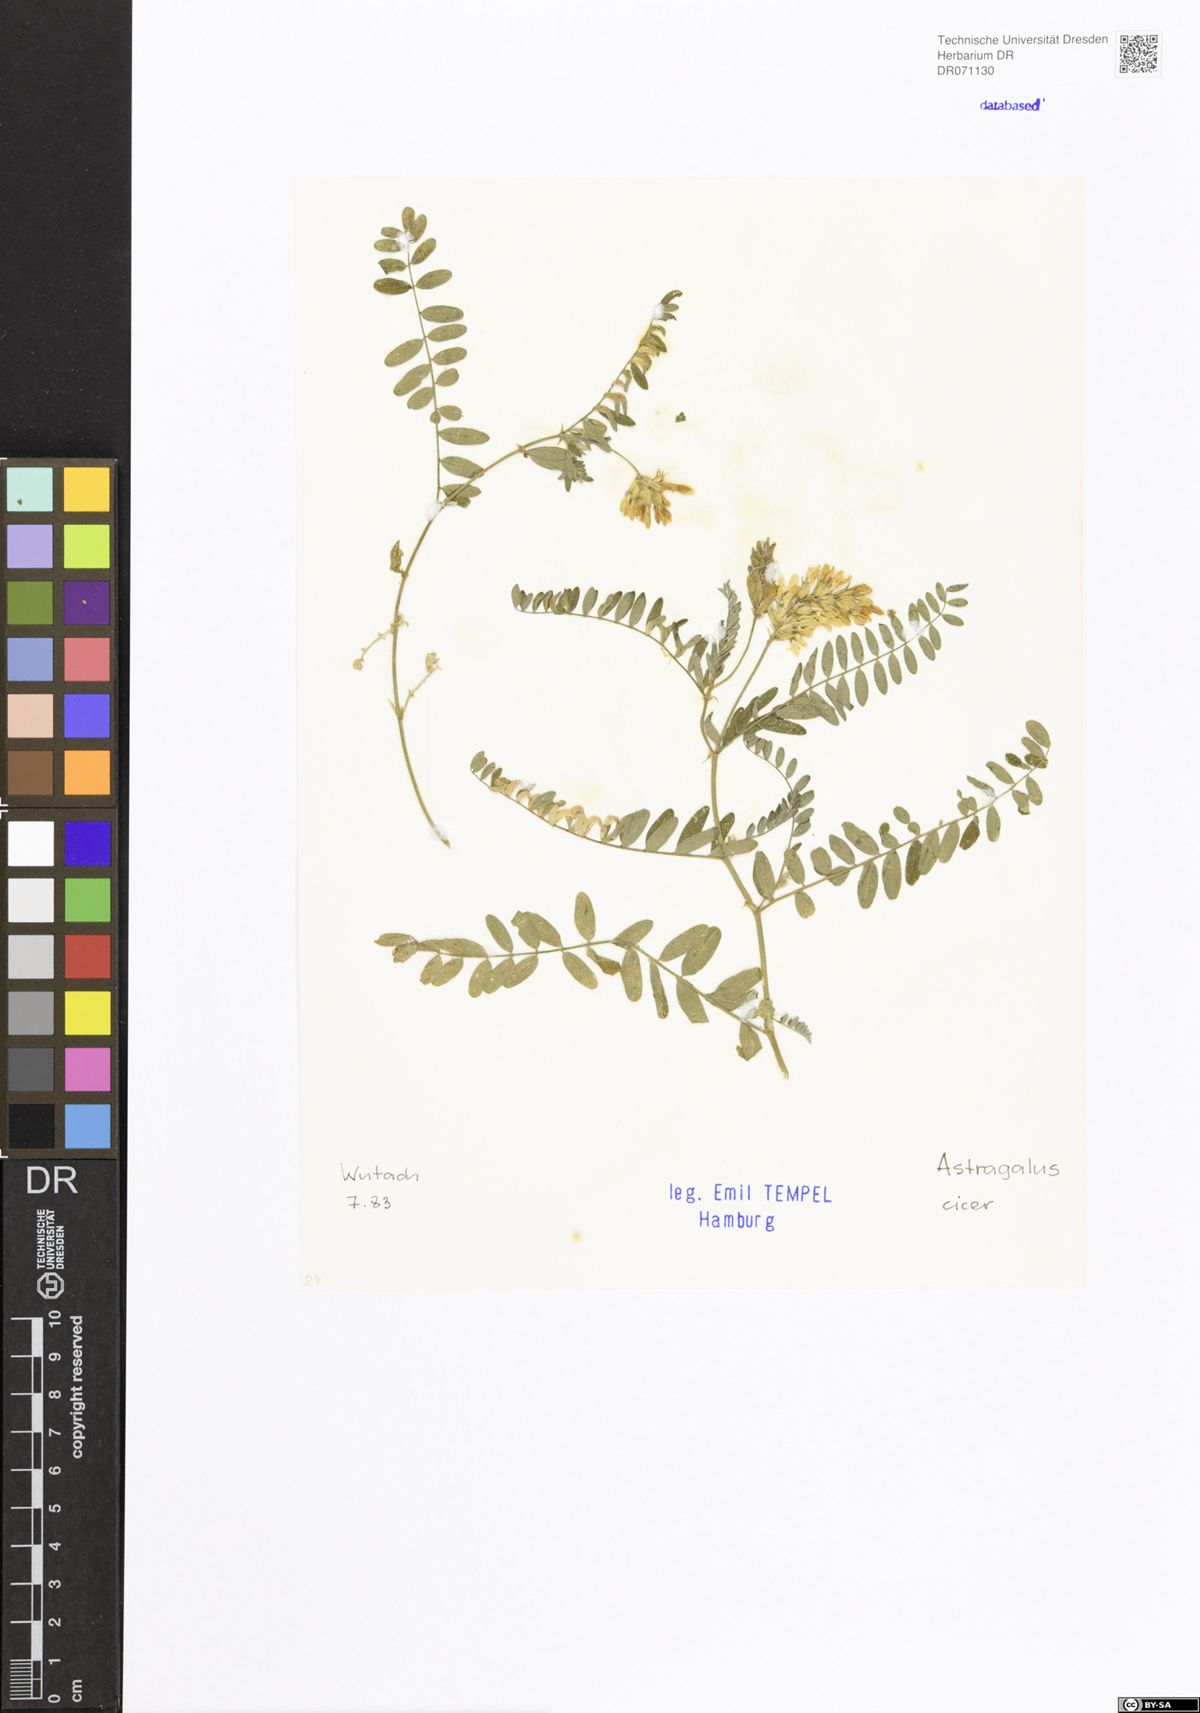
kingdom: Plantae
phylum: Tracheophyta
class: Magnoliopsida
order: Fabales
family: Fabaceae
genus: Astragalus
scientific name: Astragalus cicer
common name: Chick-pea milk-vetch
